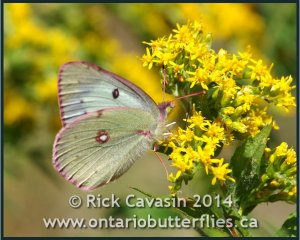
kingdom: Animalia
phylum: Arthropoda
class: Insecta
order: Lepidoptera
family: Pieridae
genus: Colias
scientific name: Colias philodice
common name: Clouded Sulphur
